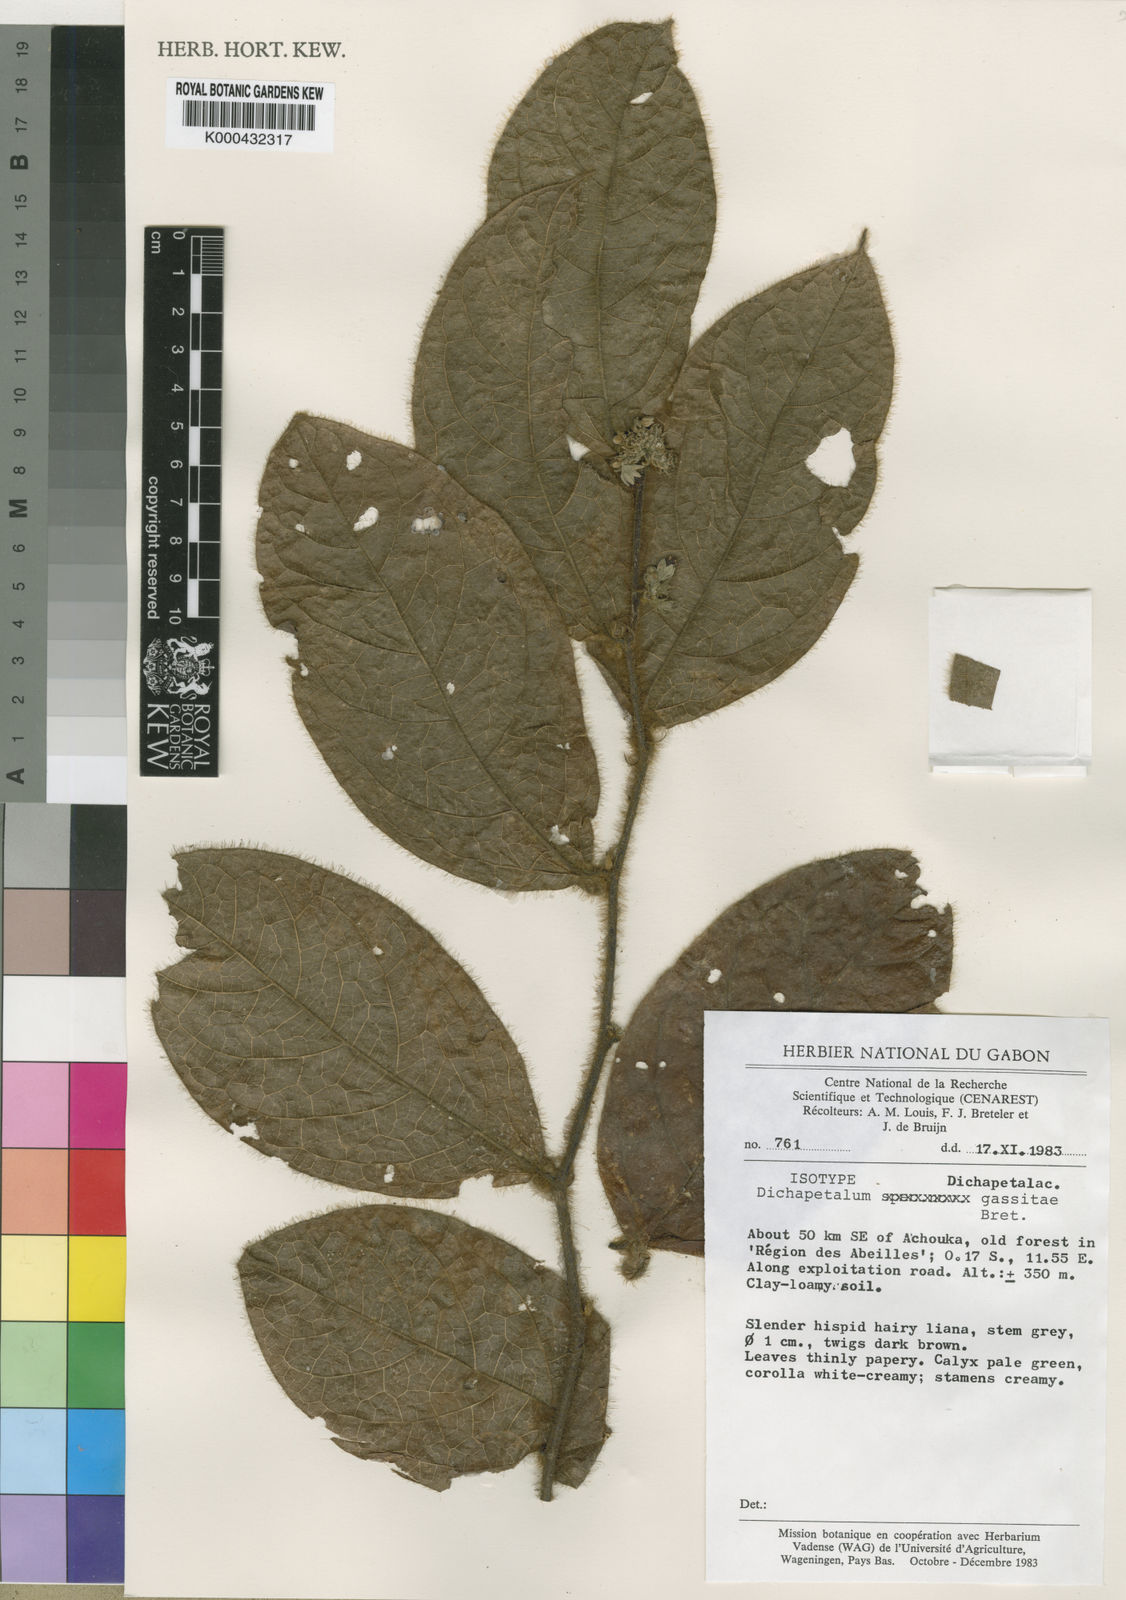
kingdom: Plantae
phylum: Tracheophyta
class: Magnoliopsida
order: Malpighiales
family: Dichapetalaceae
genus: Dichapetalum
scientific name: Dichapetalum gassitae
